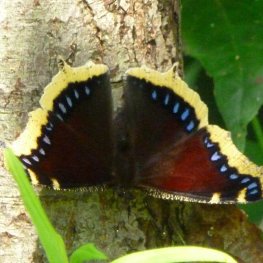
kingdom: Animalia
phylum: Arthropoda
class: Insecta
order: Lepidoptera
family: Nymphalidae
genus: Nymphalis
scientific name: Nymphalis antiopa
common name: Mourning Cloak
